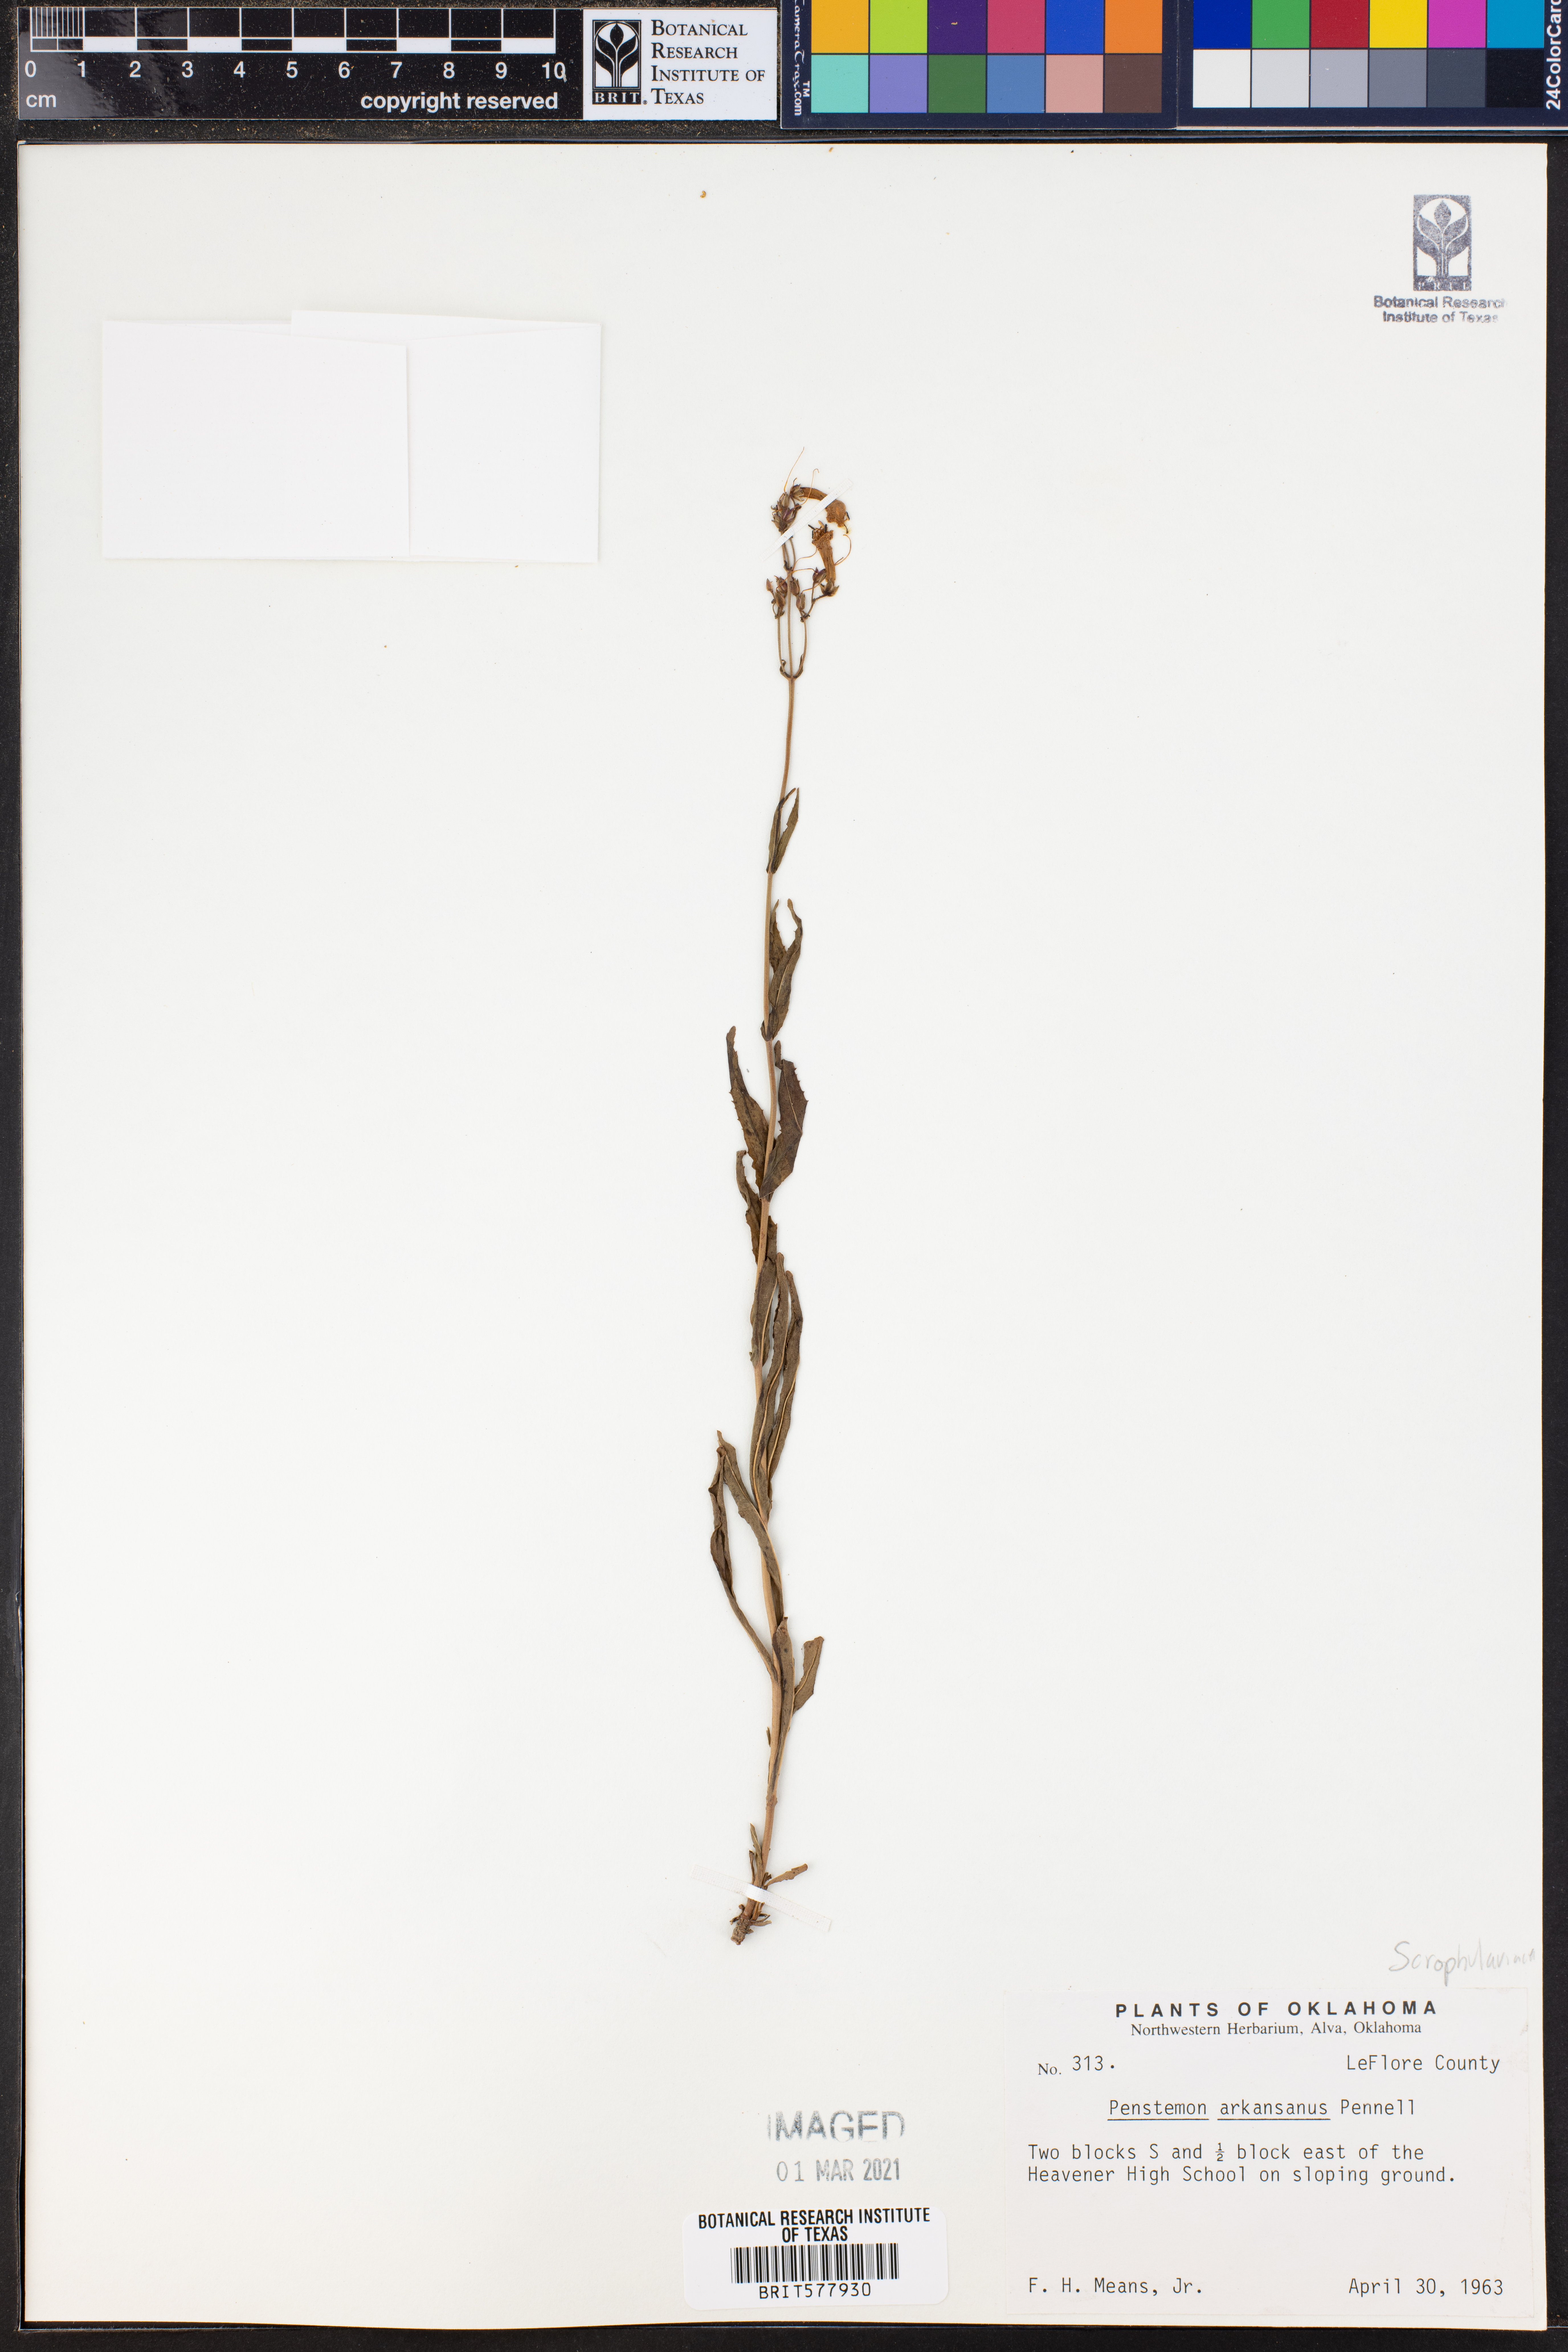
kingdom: Plantae
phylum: Tracheophyta
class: Magnoliopsida
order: Lamiales
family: Plantaginaceae
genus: Penstemon
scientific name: Penstemon arkansanus
